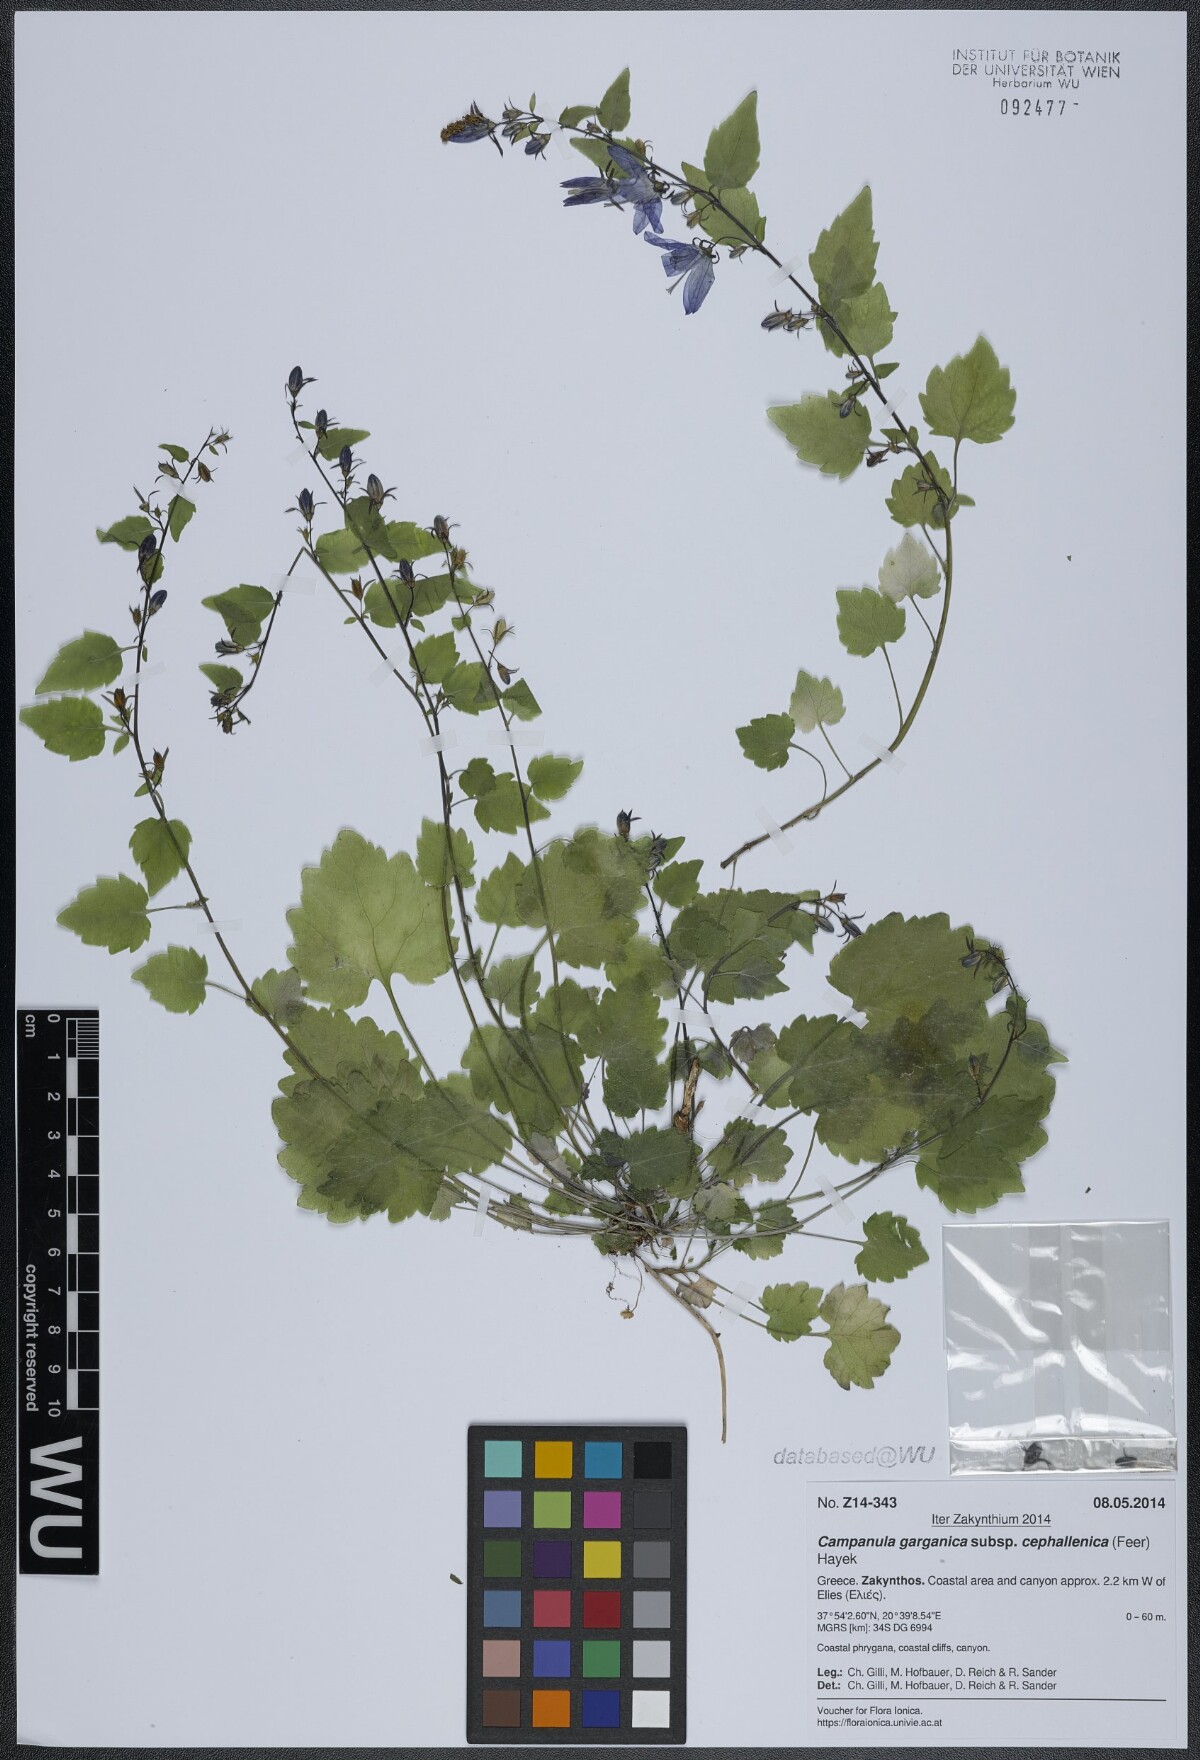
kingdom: Plantae
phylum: Tracheophyta
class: Magnoliopsida
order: Asterales
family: Campanulaceae
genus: Campanula
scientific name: Campanula garganica
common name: Adriatic bellflower
